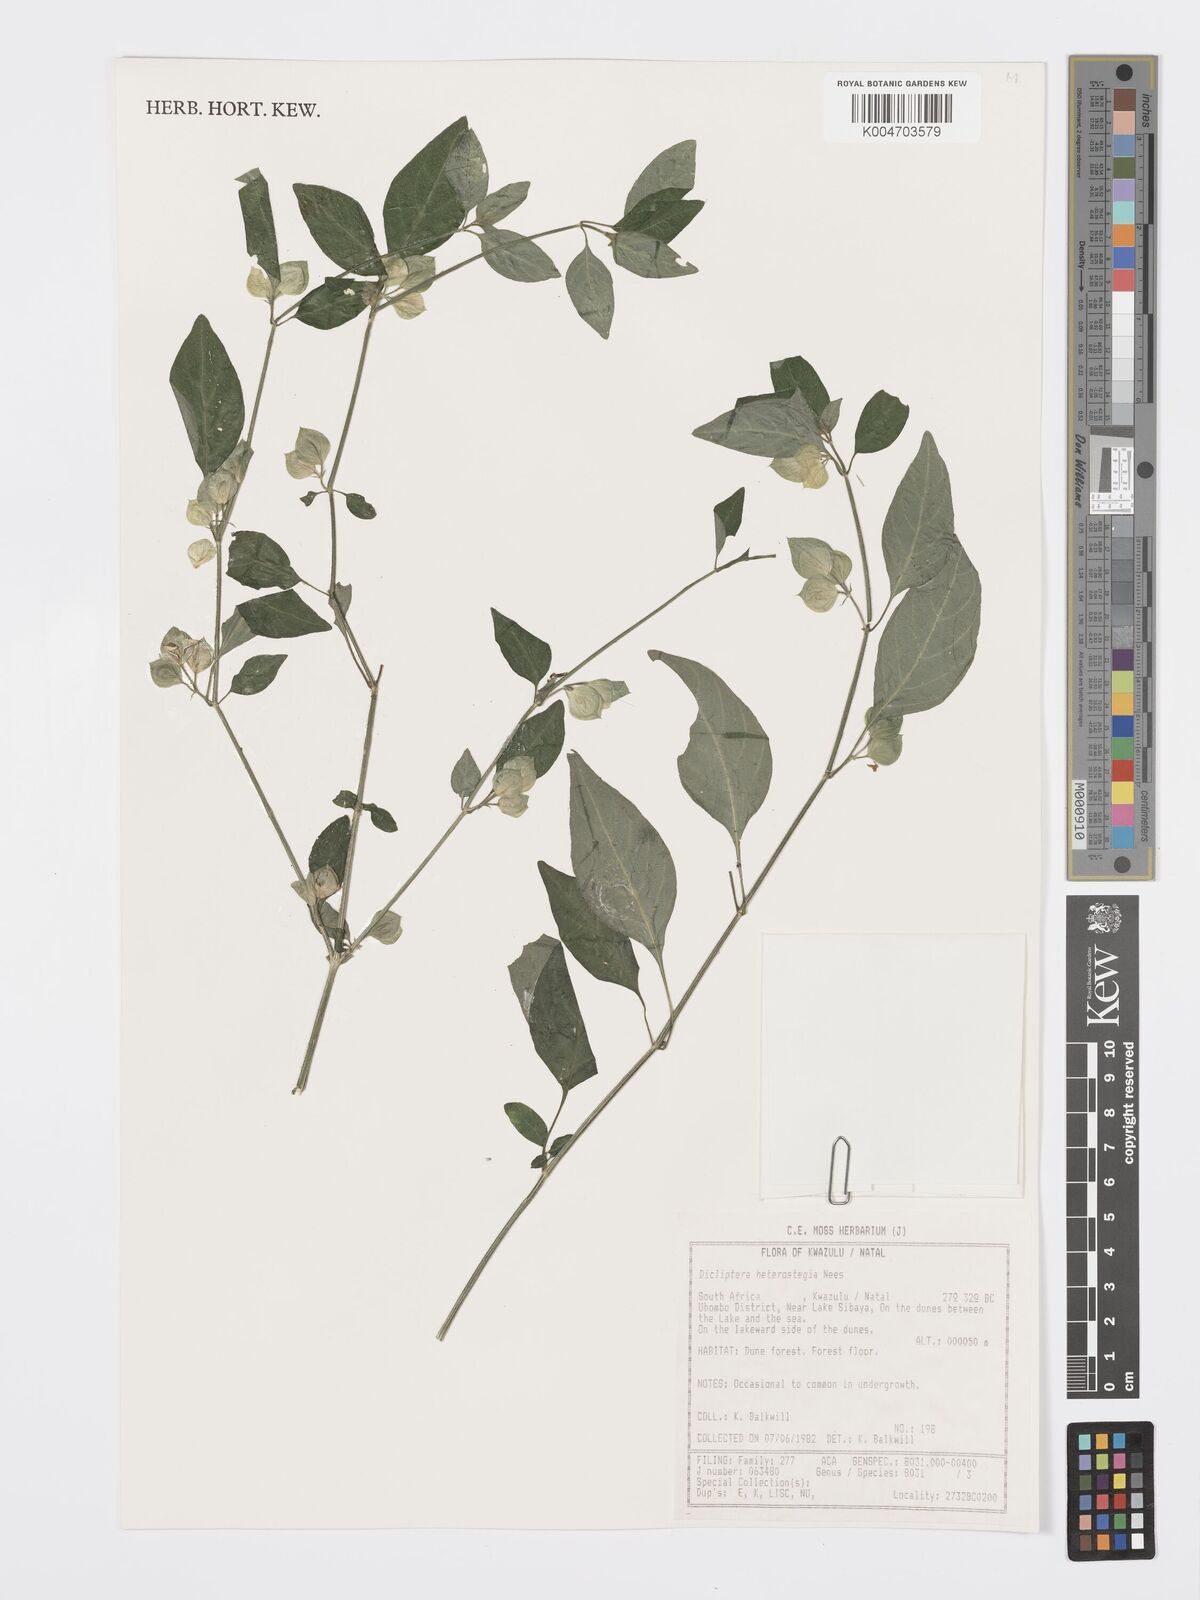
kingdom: Plantae
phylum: Tracheophyta
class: Magnoliopsida
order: Lamiales
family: Acanthaceae
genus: Dicliptera
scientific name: Dicliptera heterostegia
